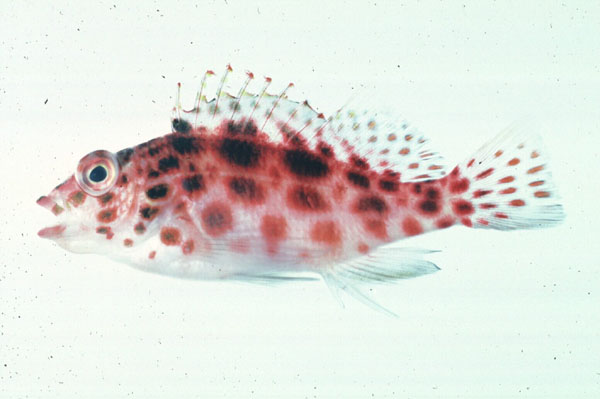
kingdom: Animalia
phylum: Chordata
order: Perciformes
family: Cirrhitidae
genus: Cirrhitichthys
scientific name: Cirrhitichthys oxycephalus
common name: Spotted hawkfish
